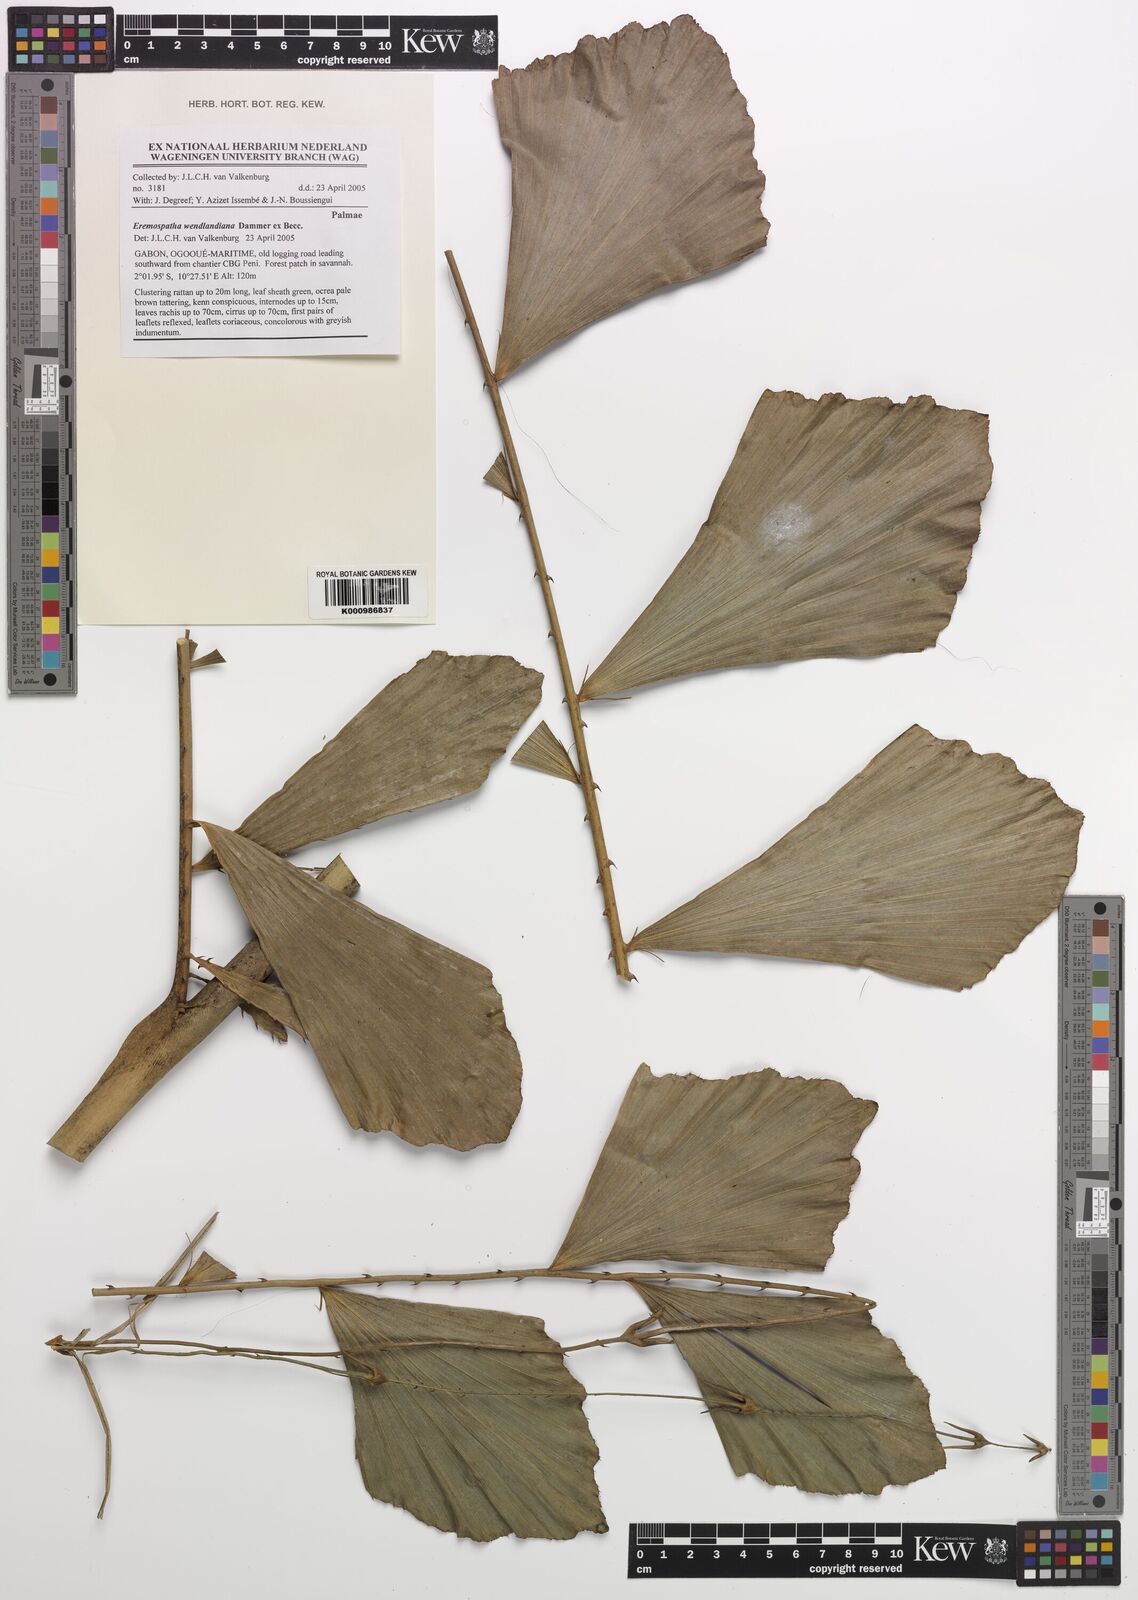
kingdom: Plantae
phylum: Tracheophyta
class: Liliopsida
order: Arecales
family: Arecaceae
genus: Eremospatha
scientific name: Eremospatha wendlandiana
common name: Rattan
